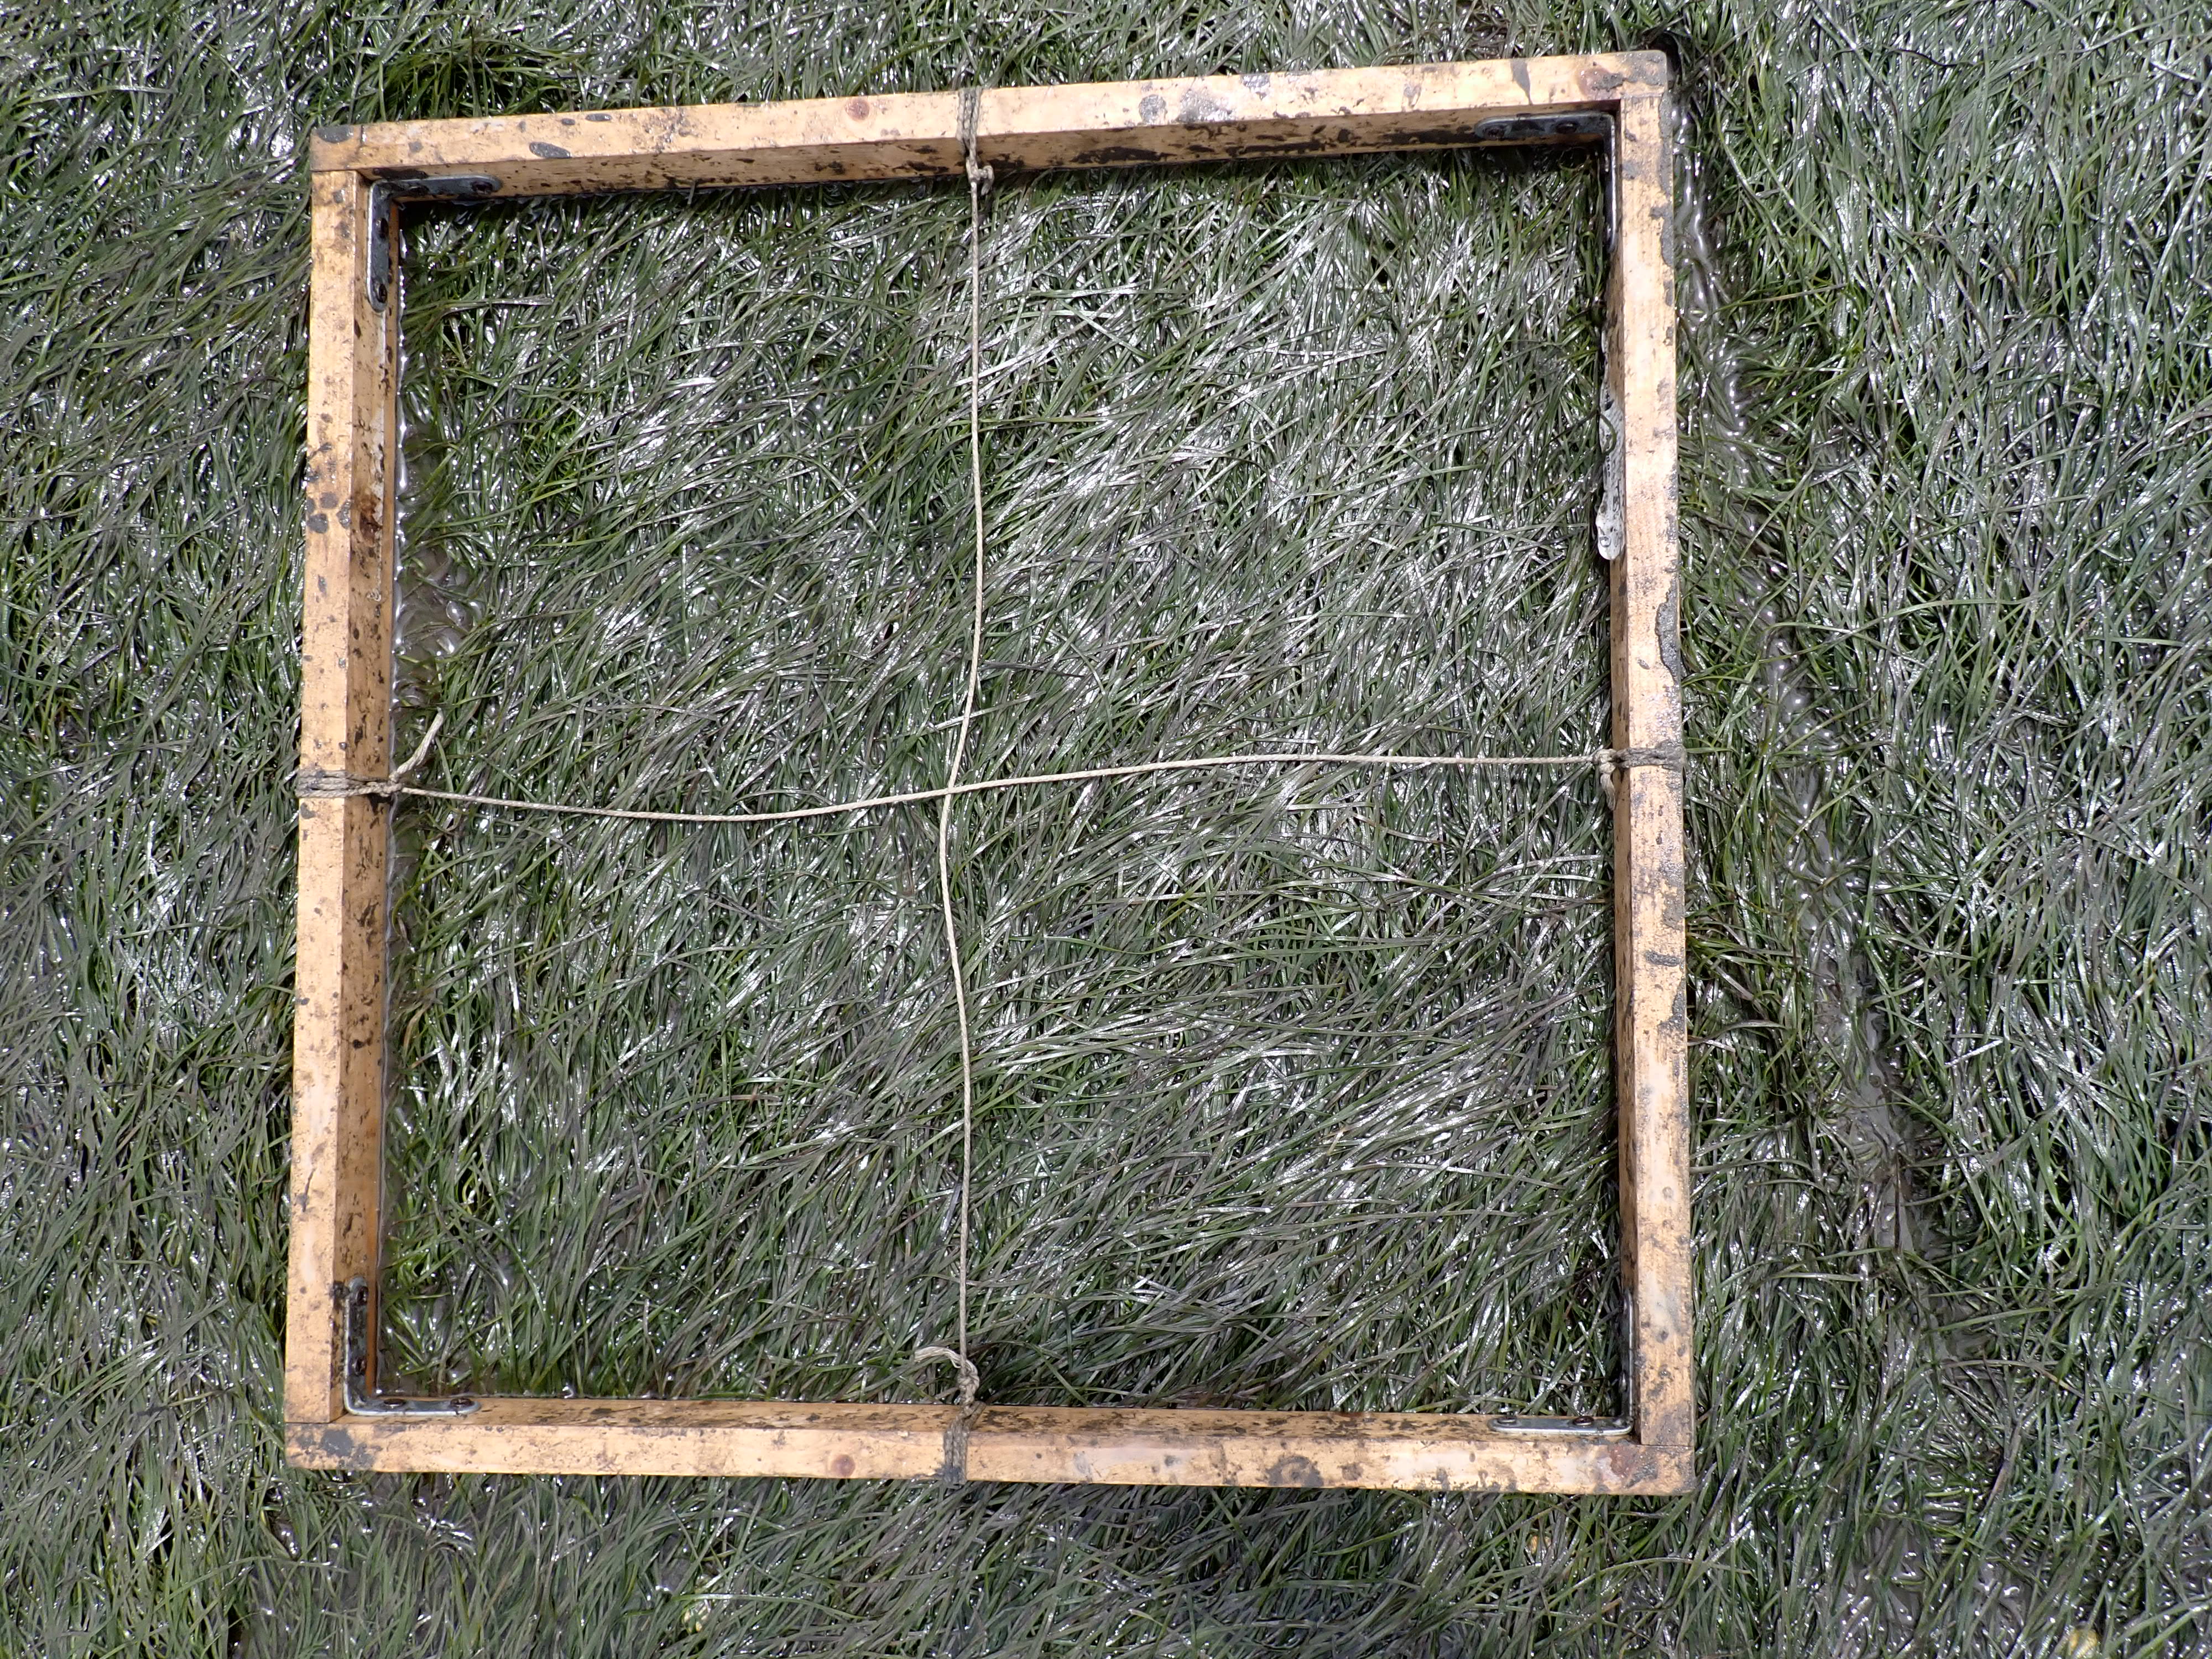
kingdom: Plantae
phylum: Tracheophyta
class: Liliopsida
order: Alismatales
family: Zosteraceae
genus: Zostera
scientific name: Zostera noltii
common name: Dwarf eelgrass
